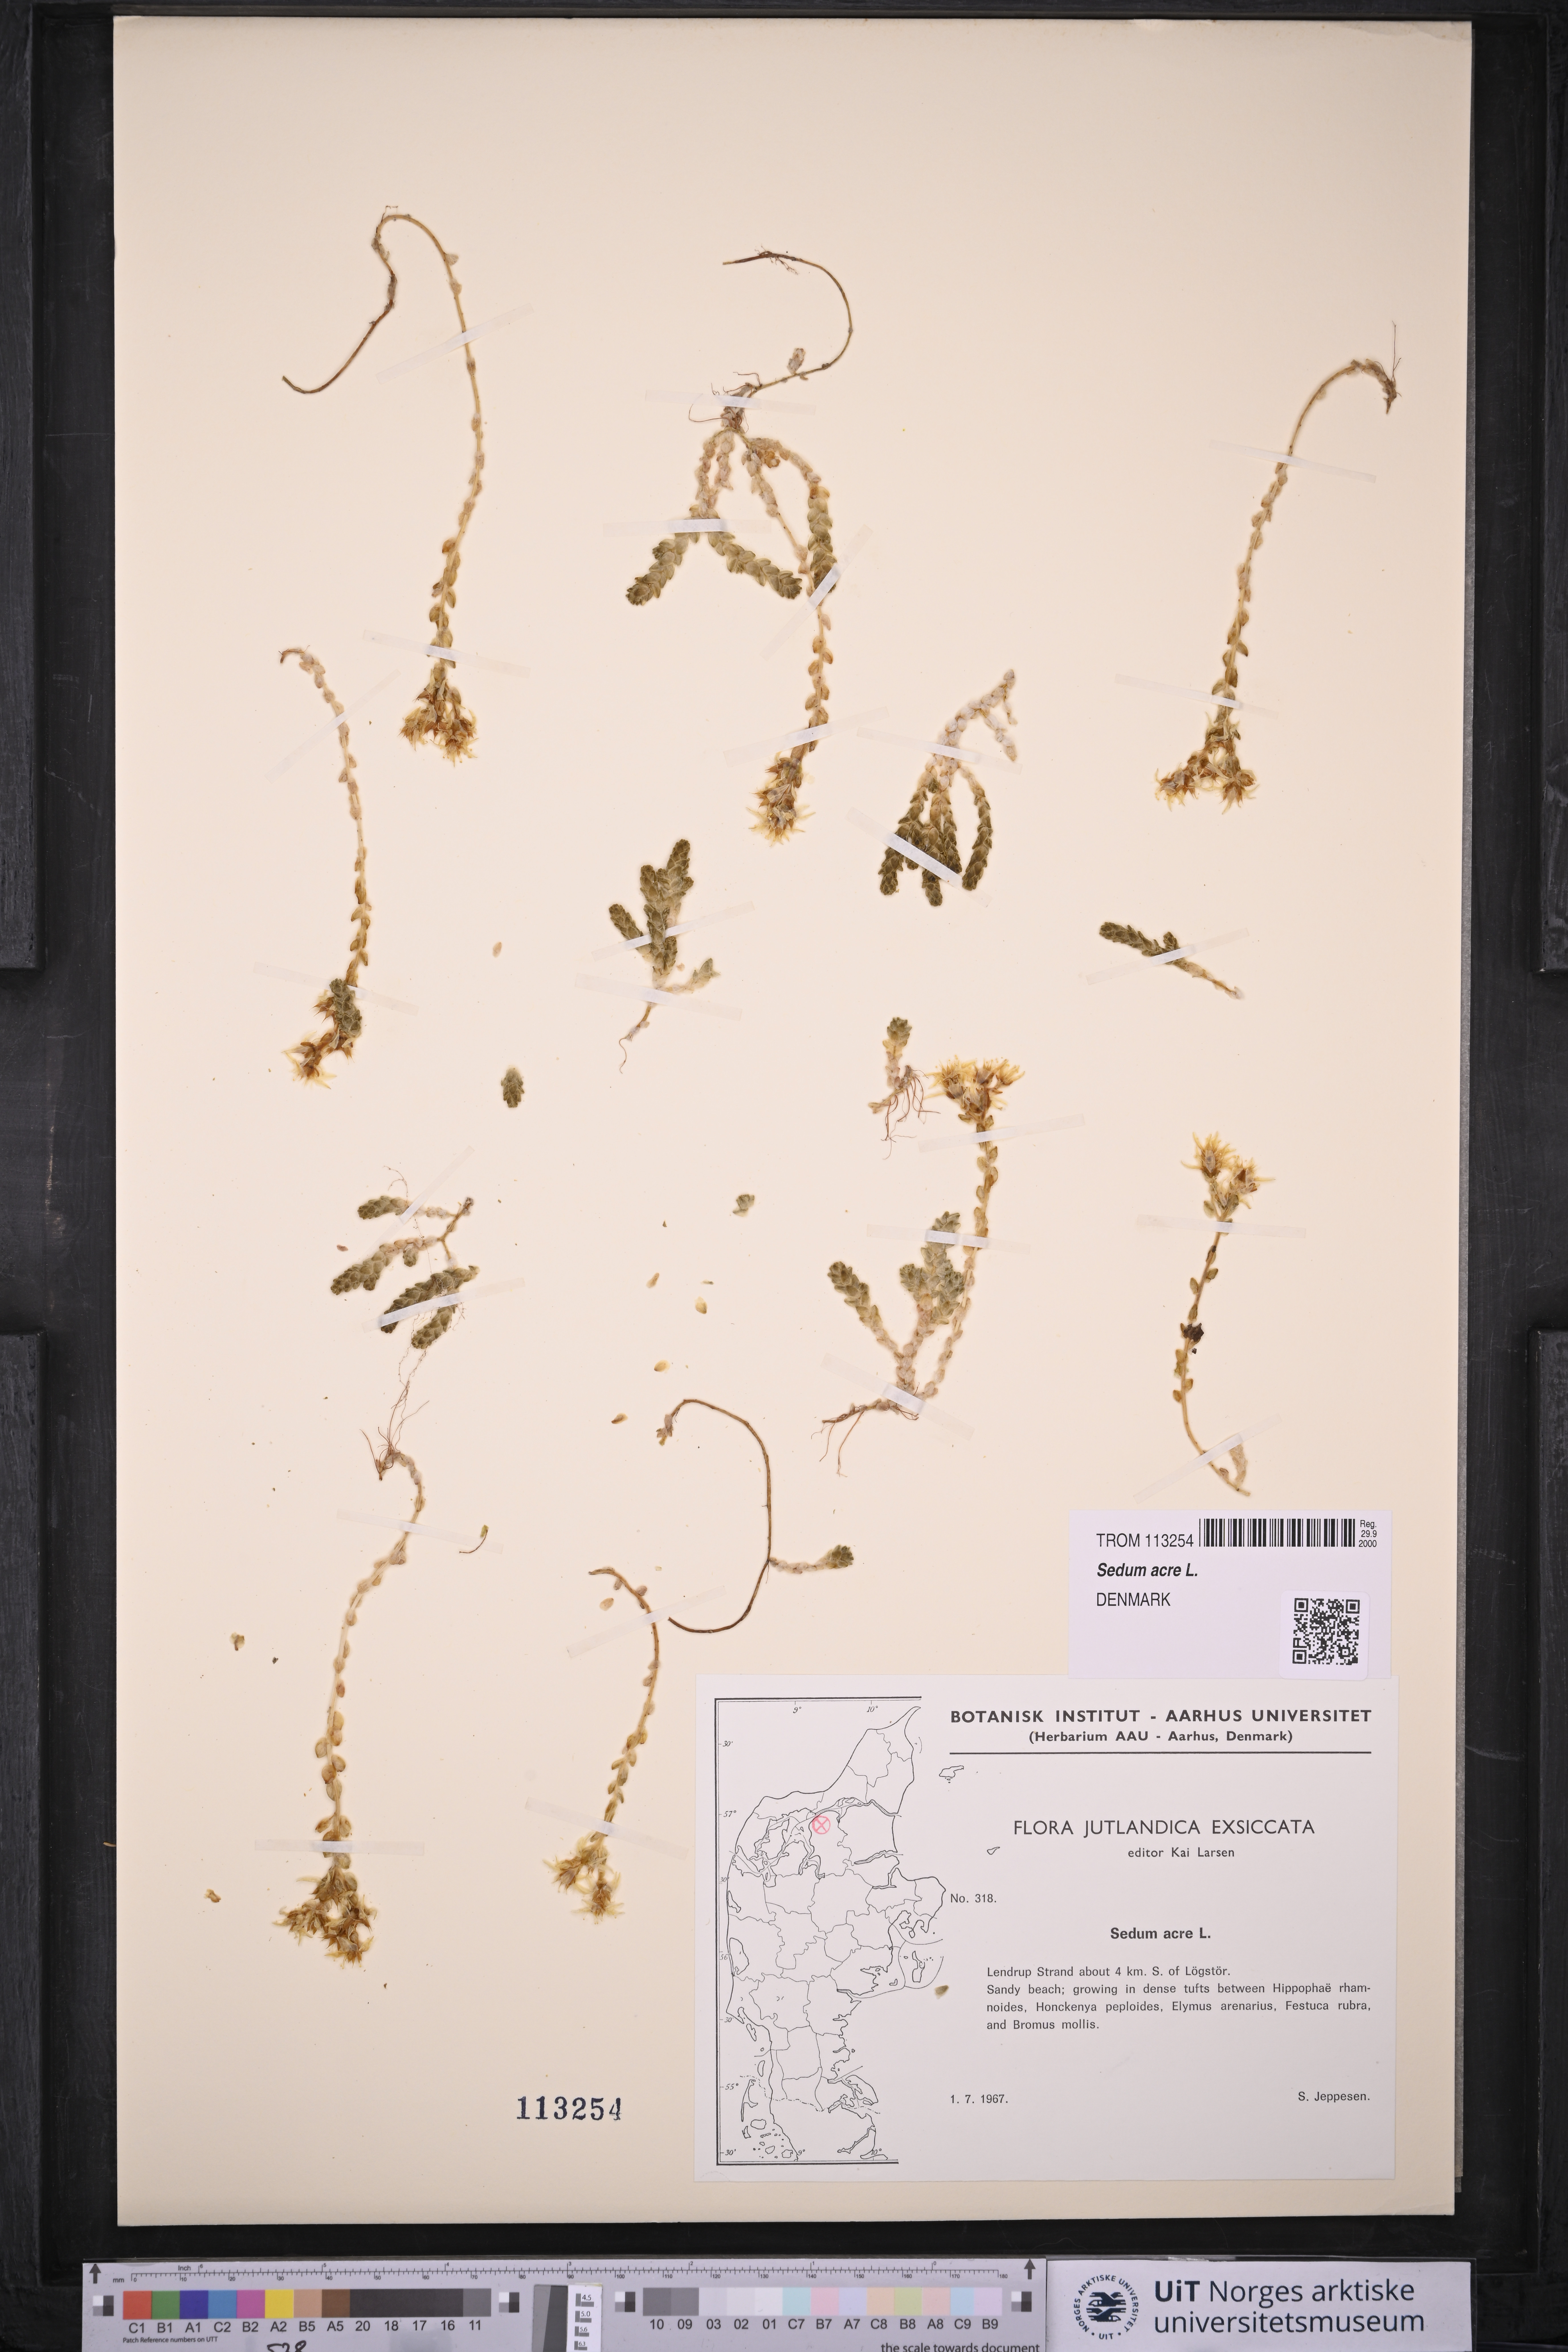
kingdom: Plantae
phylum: Tracheophyta
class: Magnoliopsida
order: Saxifragales
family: Crassulaceae
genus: Sedum
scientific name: Sedum acre
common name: Biting stonecrop
